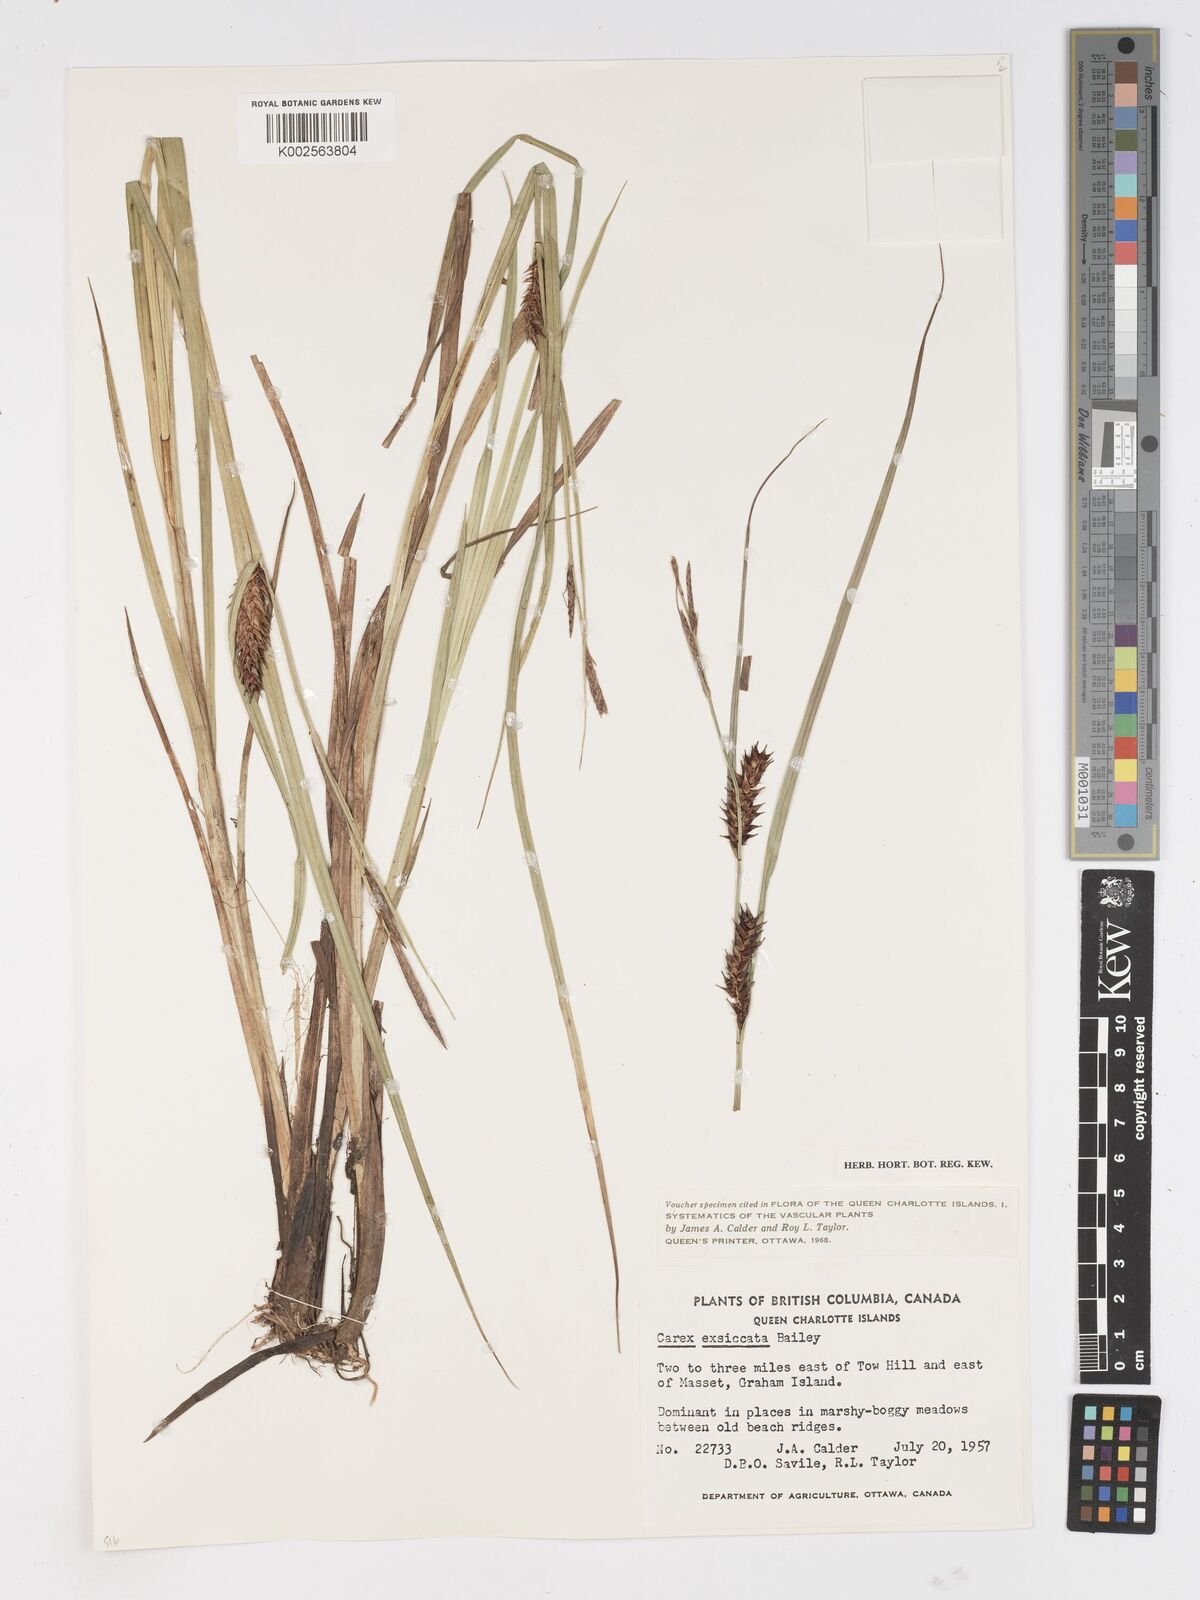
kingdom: Plantae
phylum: Tracheophyta
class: Liliopsida
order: Poales
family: Cyperaceae
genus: Carex
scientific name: Carex exsiccata
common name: Beaked sedge
